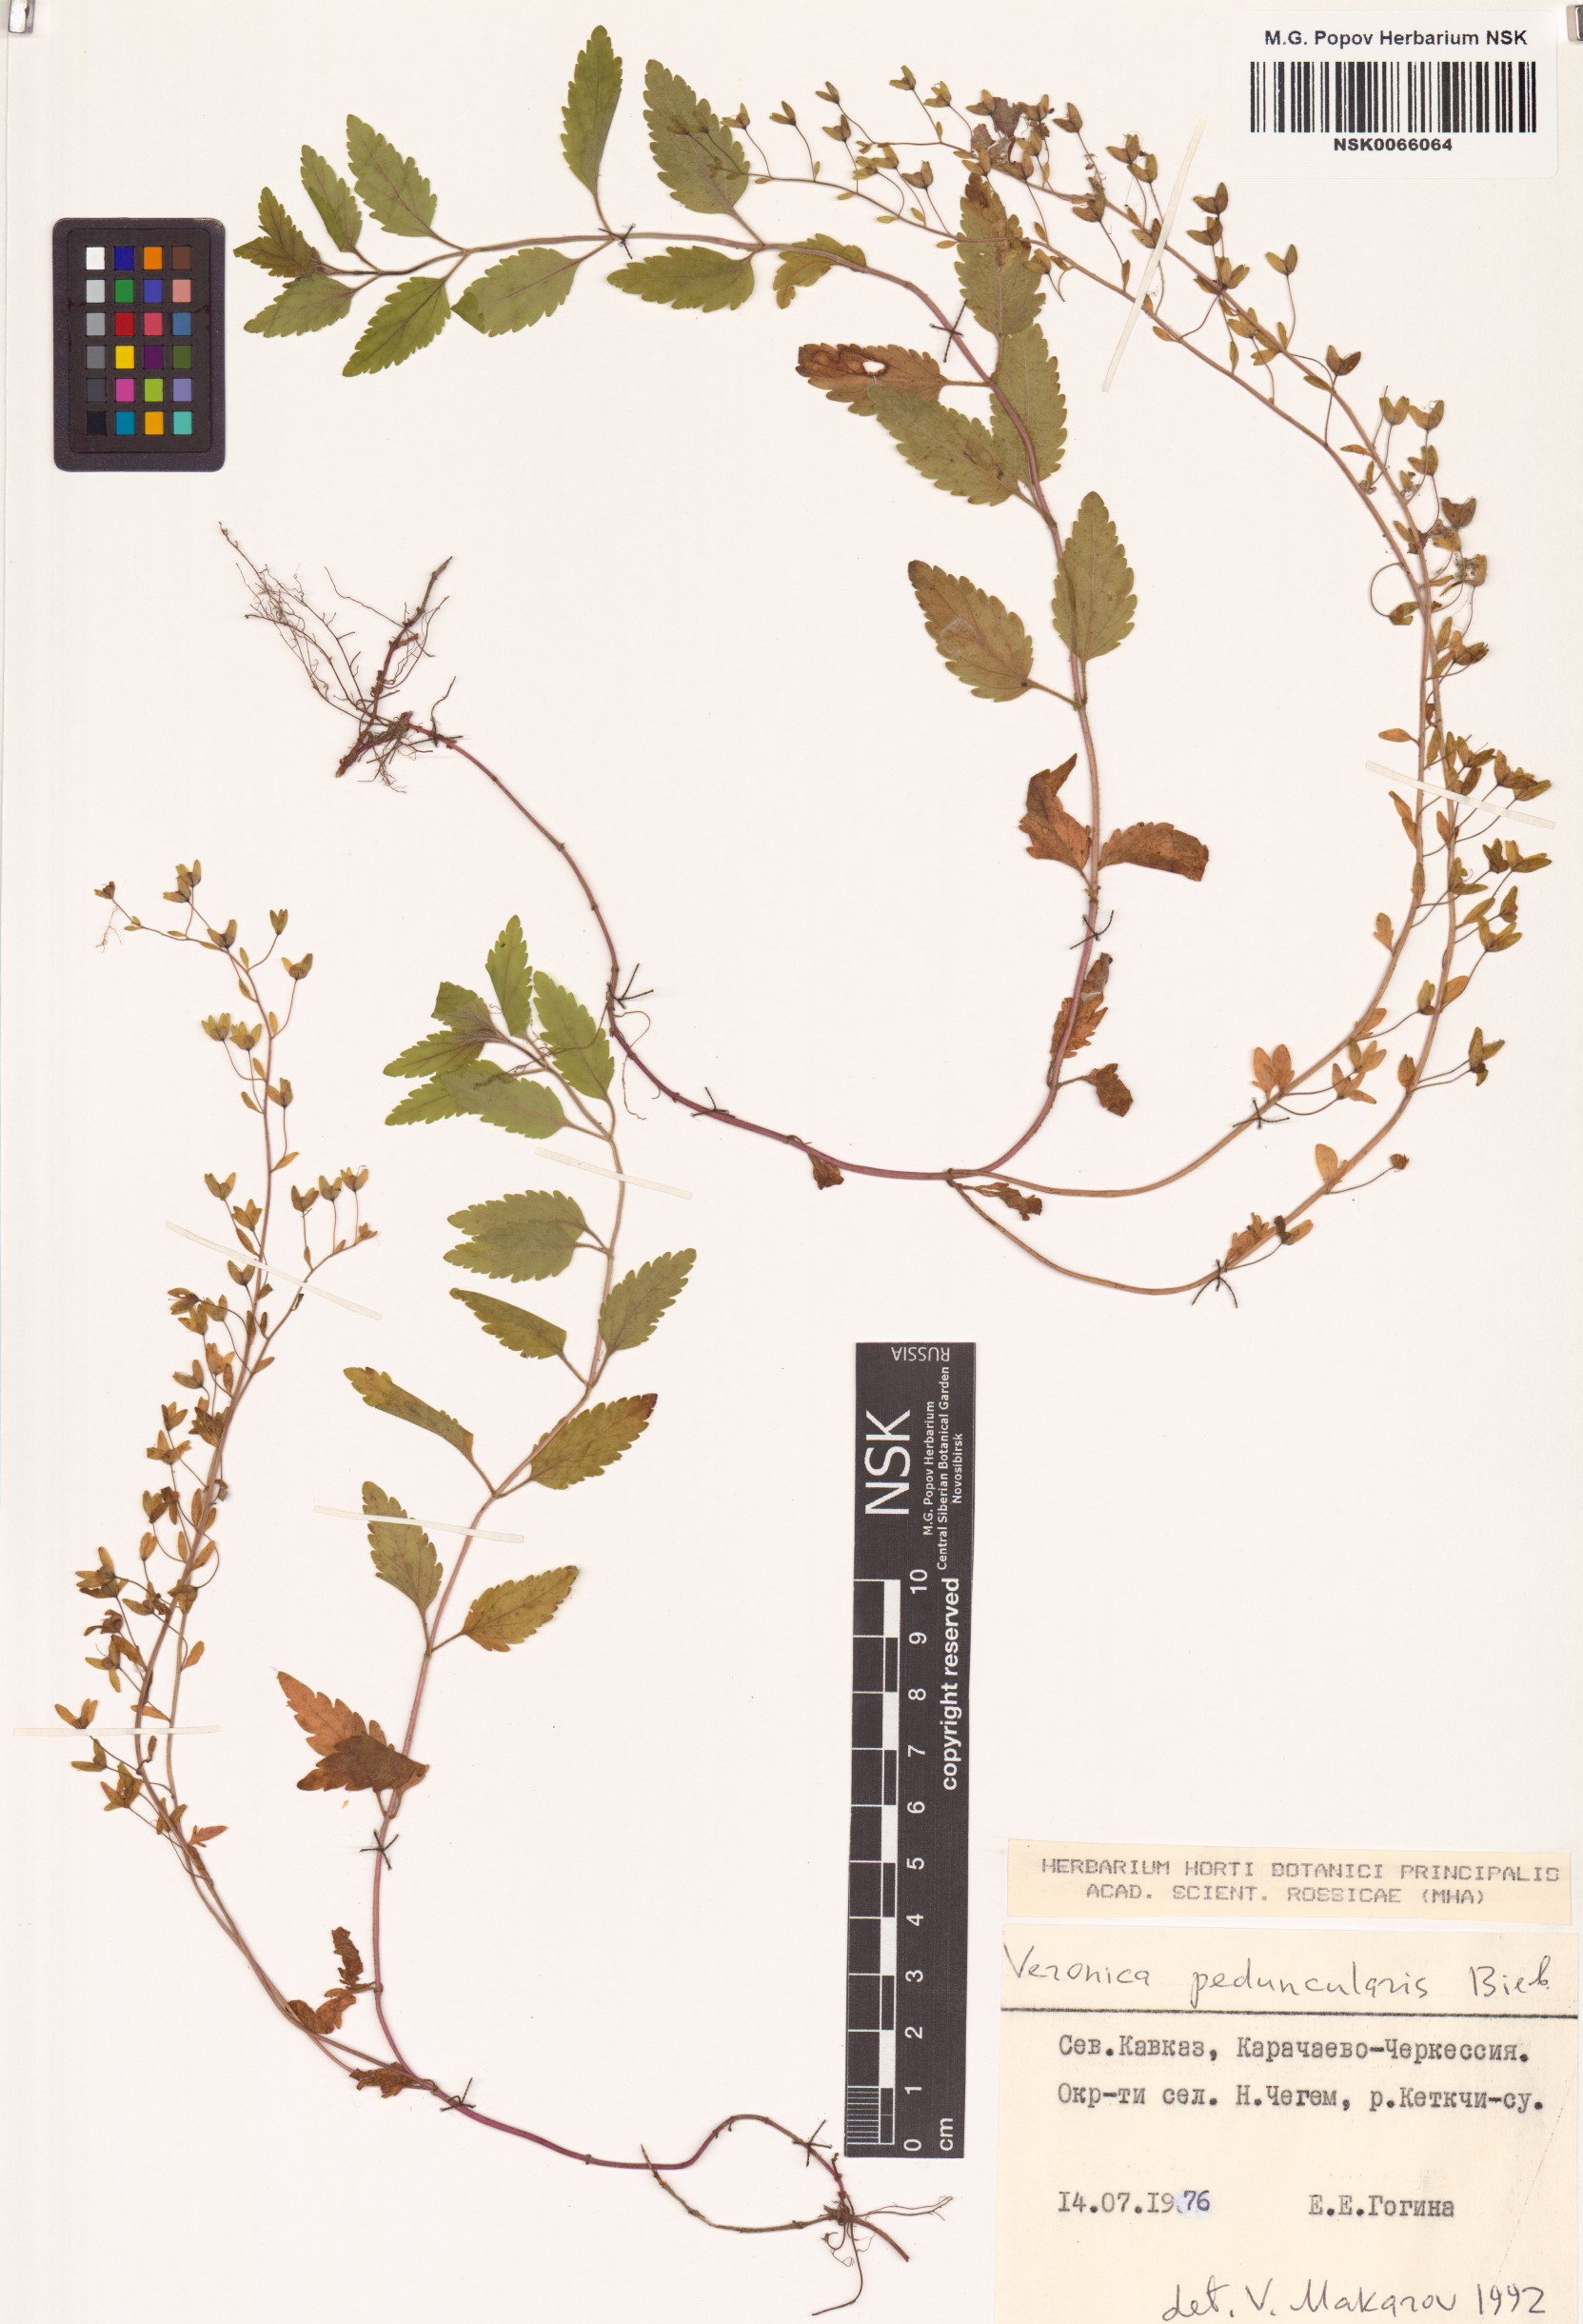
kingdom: Plantae
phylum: Tracheophyta
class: Magnoliopsida
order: Lamiales
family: Plantaginaceae
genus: Veronica
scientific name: Veronica peduncularis
